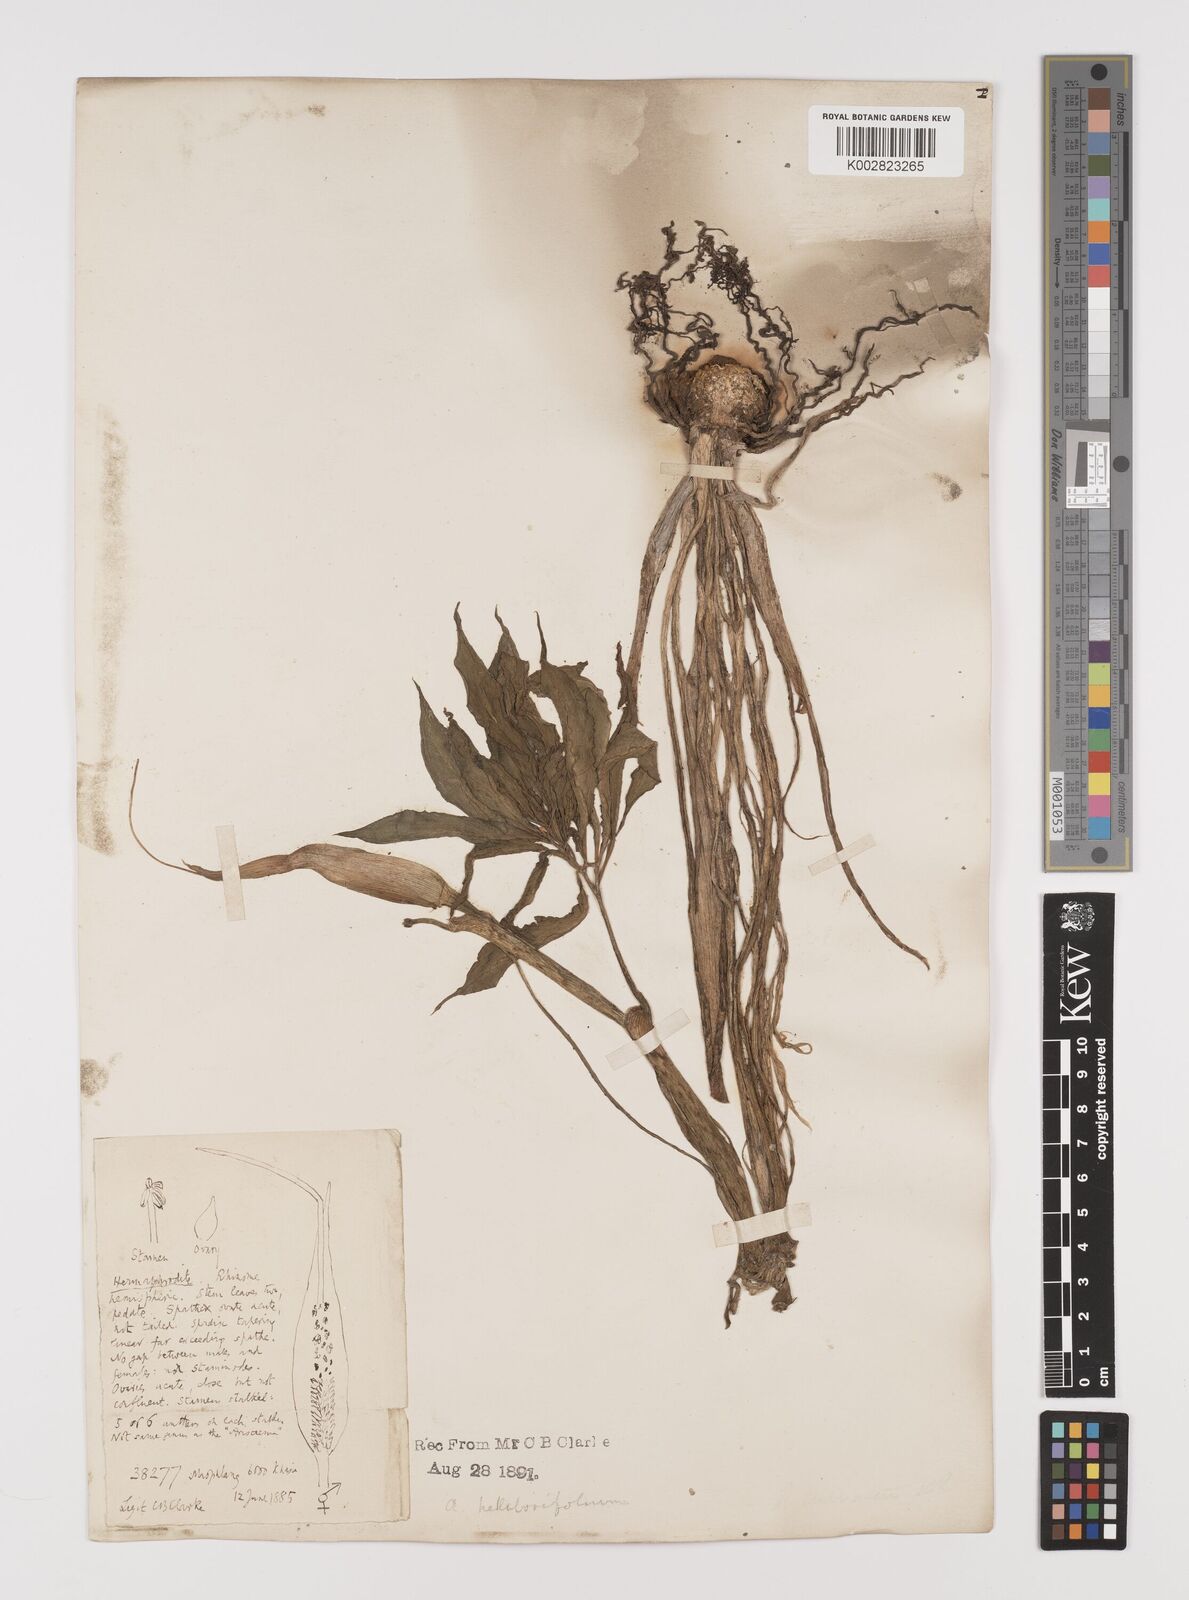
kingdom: Plantae
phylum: Tracheophyta
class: Liliopsida
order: Alismatales
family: Araceae
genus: Arisaema
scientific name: Arisaema tortuosum
